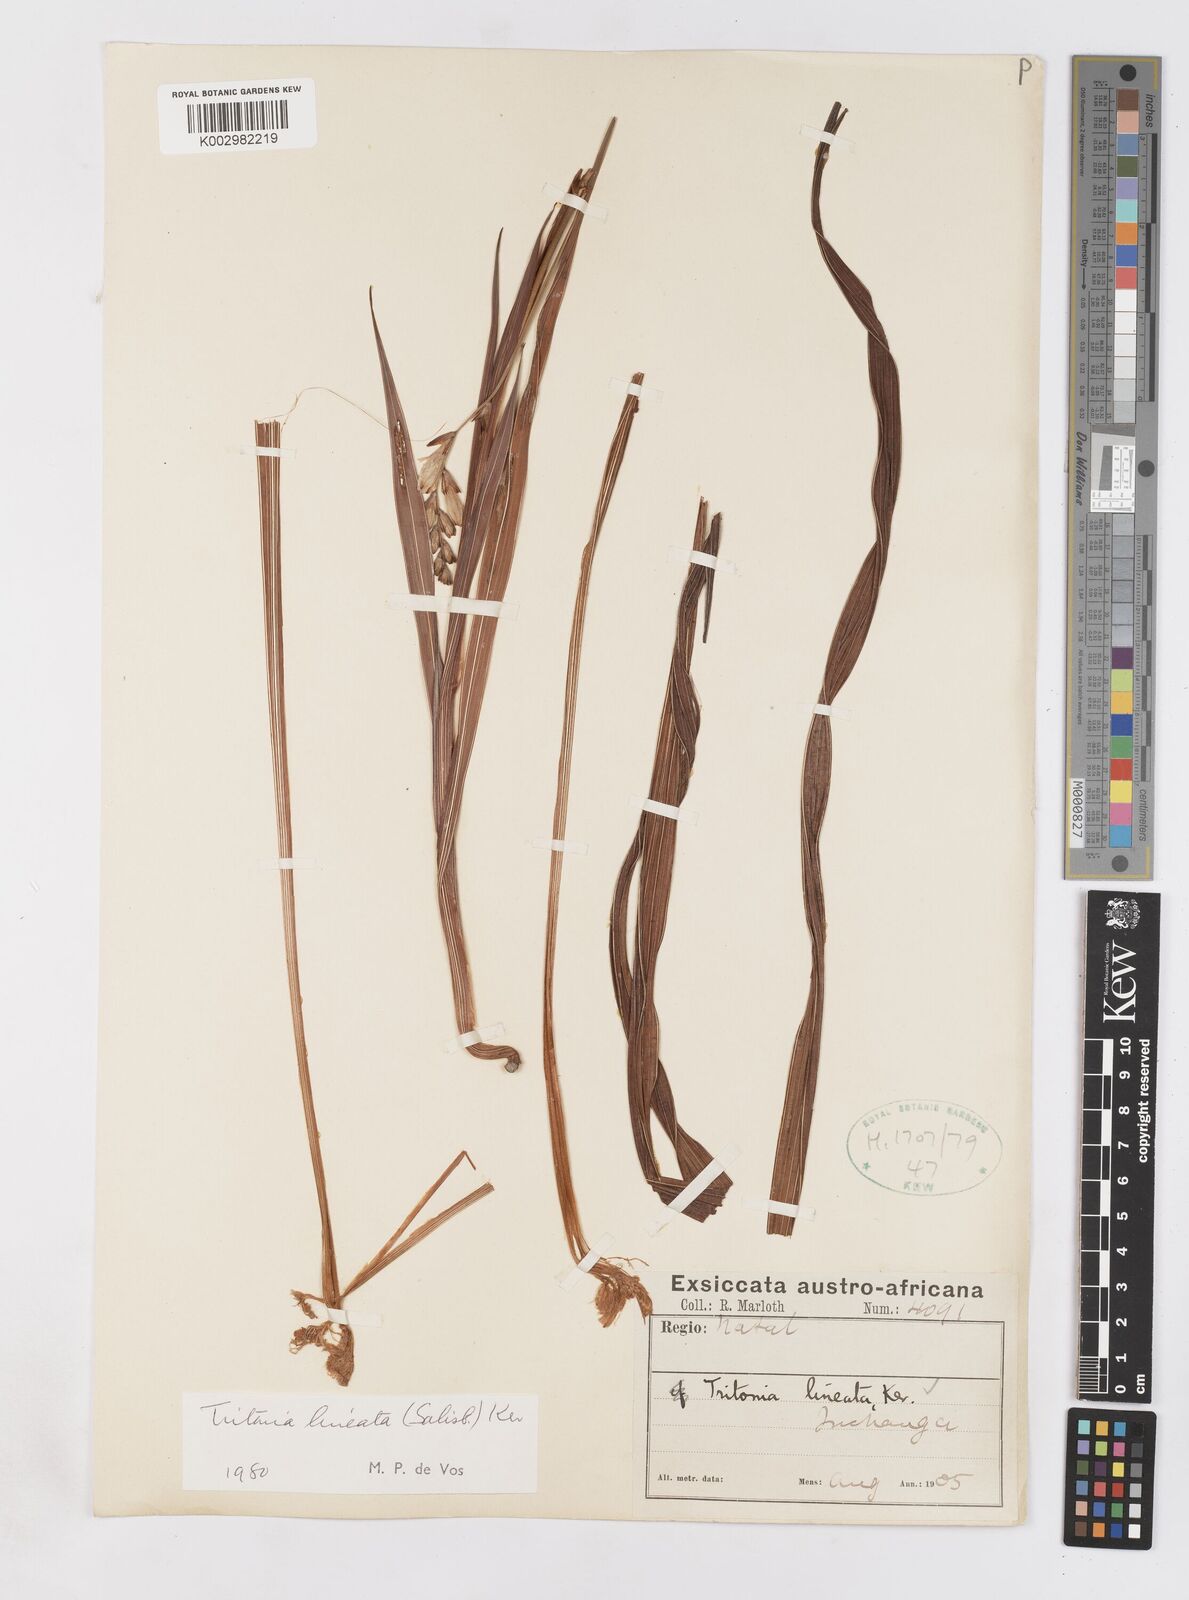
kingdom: Plantae
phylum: Tracheophyta
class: Liliopsida
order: Asparagales
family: Iridaceae
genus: Tritonia
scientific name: Tritonia gladiolaris
